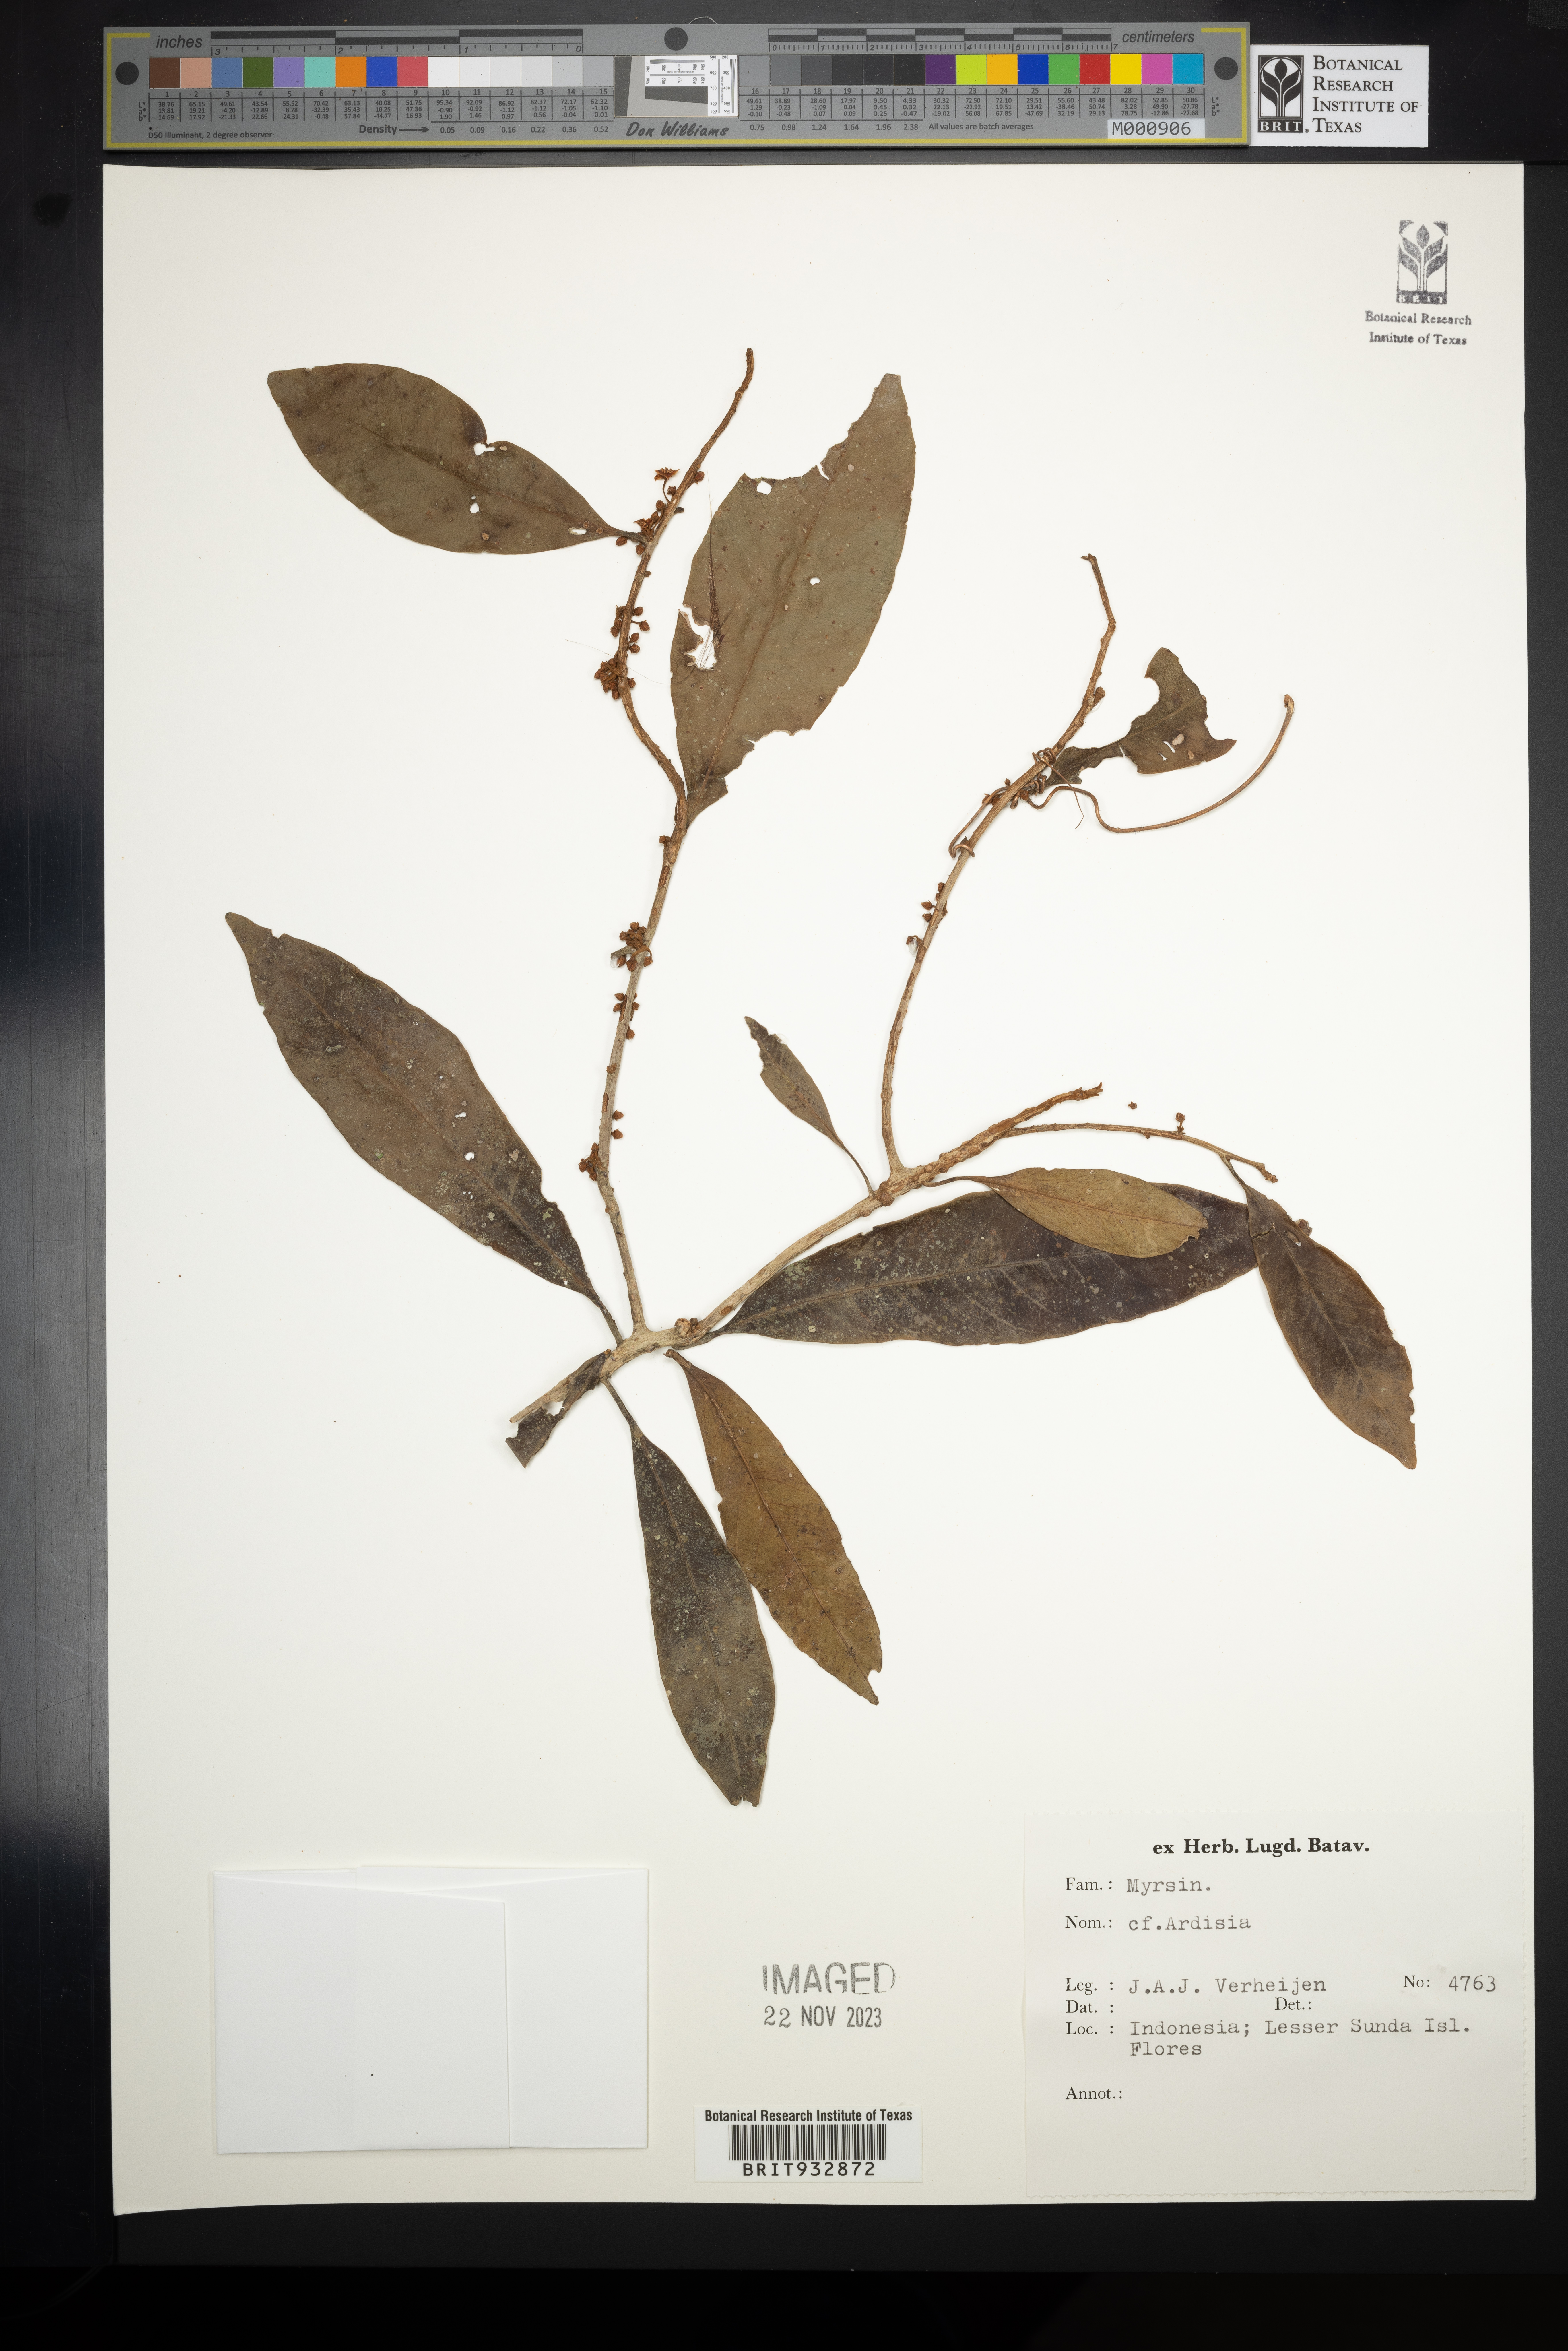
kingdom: Plantae
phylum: Tracheophyta
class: Magnoliopsida
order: Ericales
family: Primulaceae
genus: Ardisia
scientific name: Ardisia
